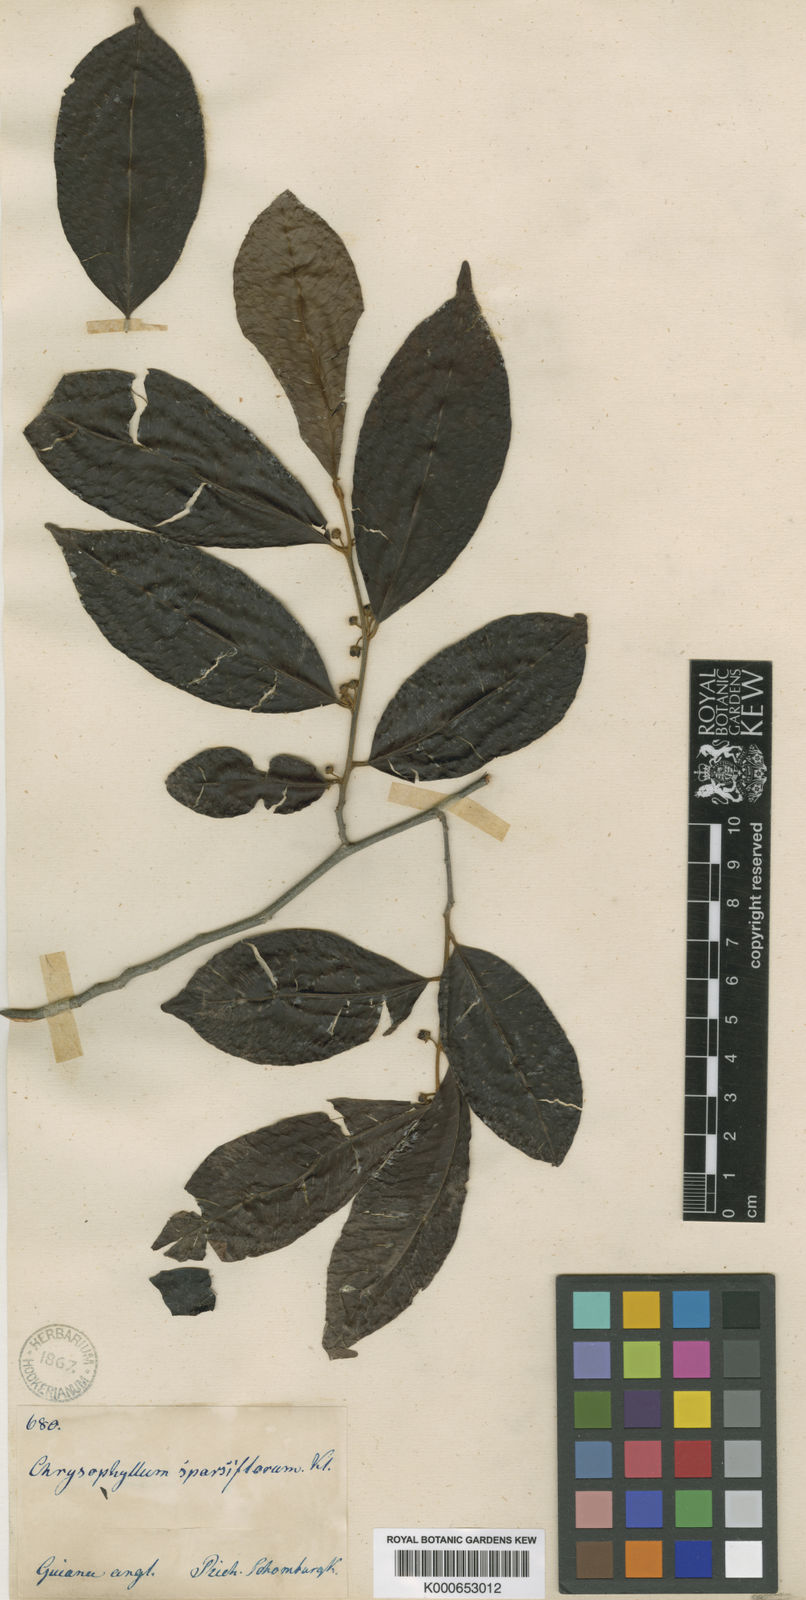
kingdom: Plantae
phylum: Tracheophyta
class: Magnoliopsida
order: Ericales
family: Sapotaceae
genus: Chrysophyllum
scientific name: Chrysophyllum sparsiflorum
